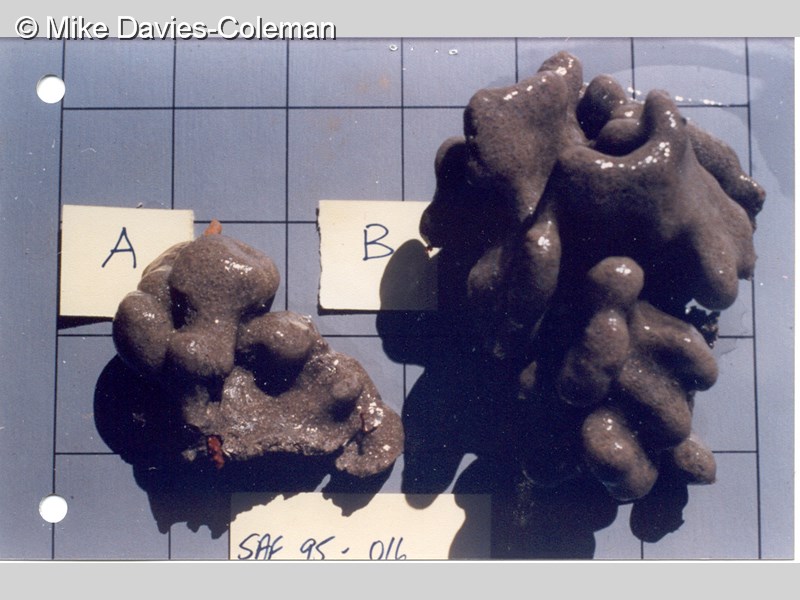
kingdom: Animalia
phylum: Chordata
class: Ascidiacea
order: Aplousobranchia
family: Polyclinidae
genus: Aplidium
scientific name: Aplidium
